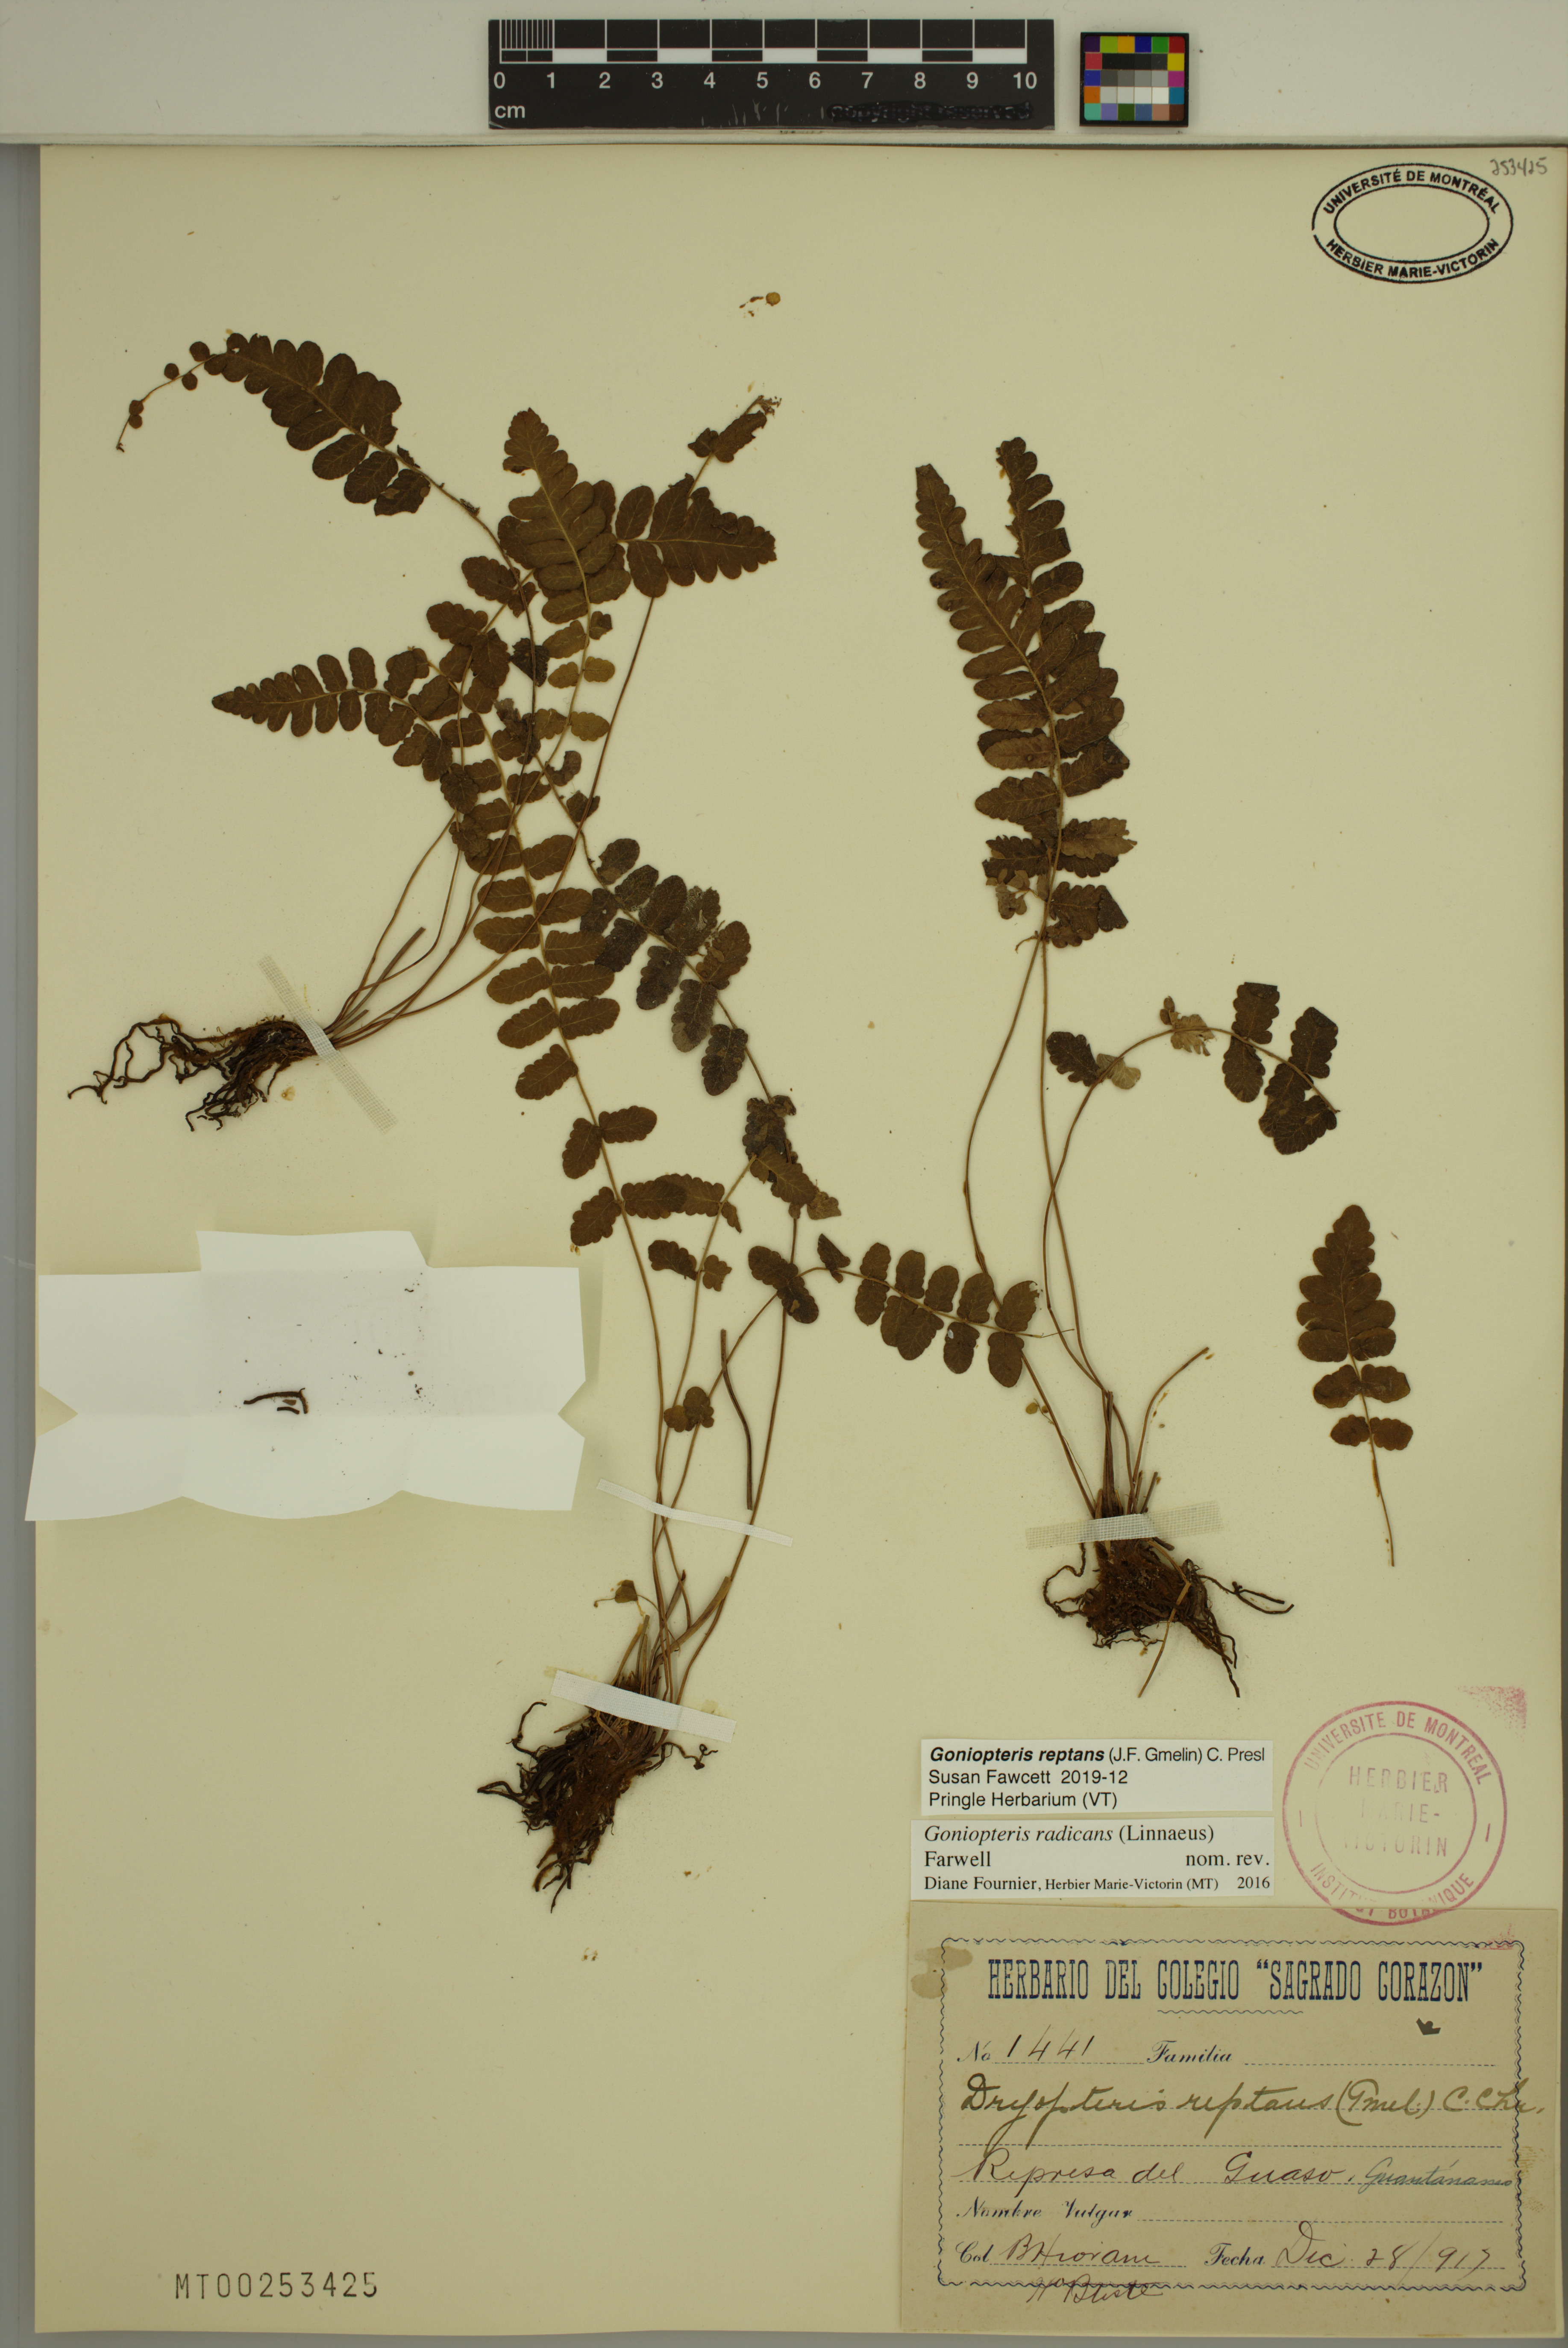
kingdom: Plantae
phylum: Tracheophyta
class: Polypodiopsida
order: Polypodiales
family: Thelypteridaceae
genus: Goniopteris
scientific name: Goniopteris reptans
